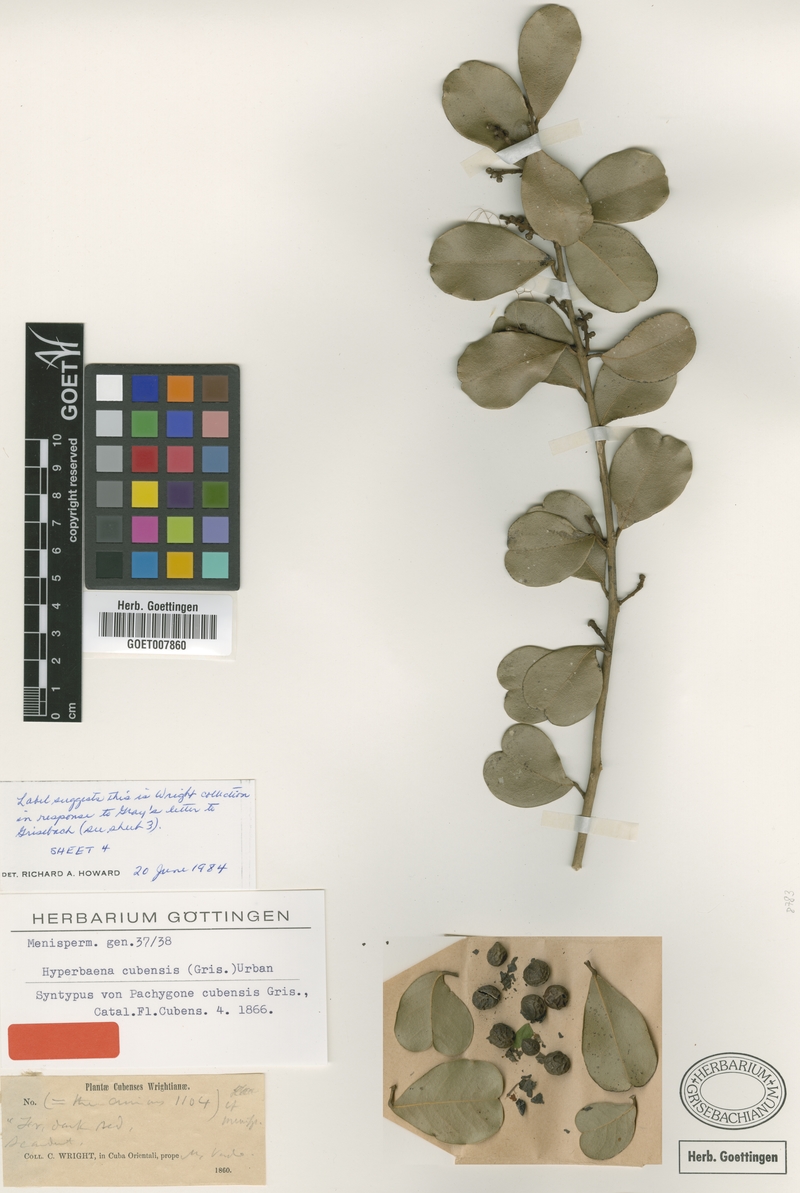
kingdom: Plantae
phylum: Tracheophyta
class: Magnoliopsida
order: Ranunculales
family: Menispermaceae
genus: Hyperbaena
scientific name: Hyperbaena cubensis
